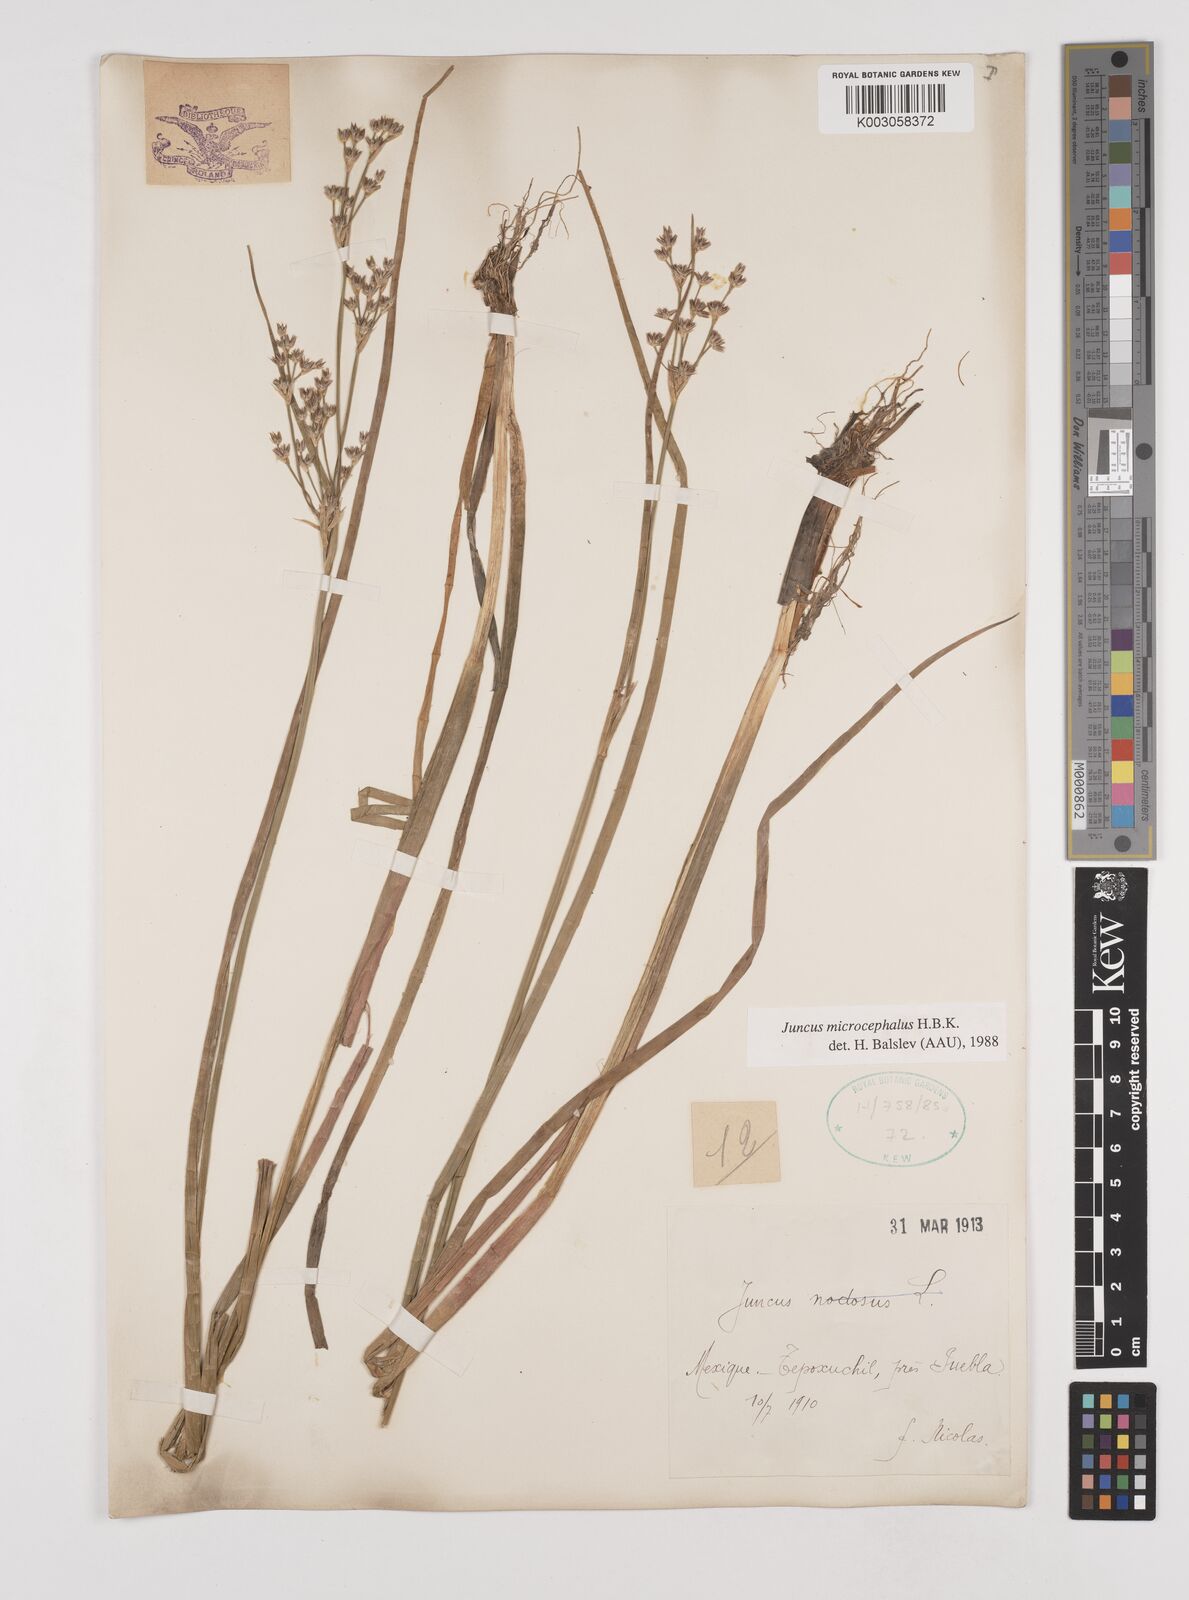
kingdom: Plantae
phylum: Tracheophyta
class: Liliopsida
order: Poales
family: Juncaceae
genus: Juncus
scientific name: Juncus microcephalus
